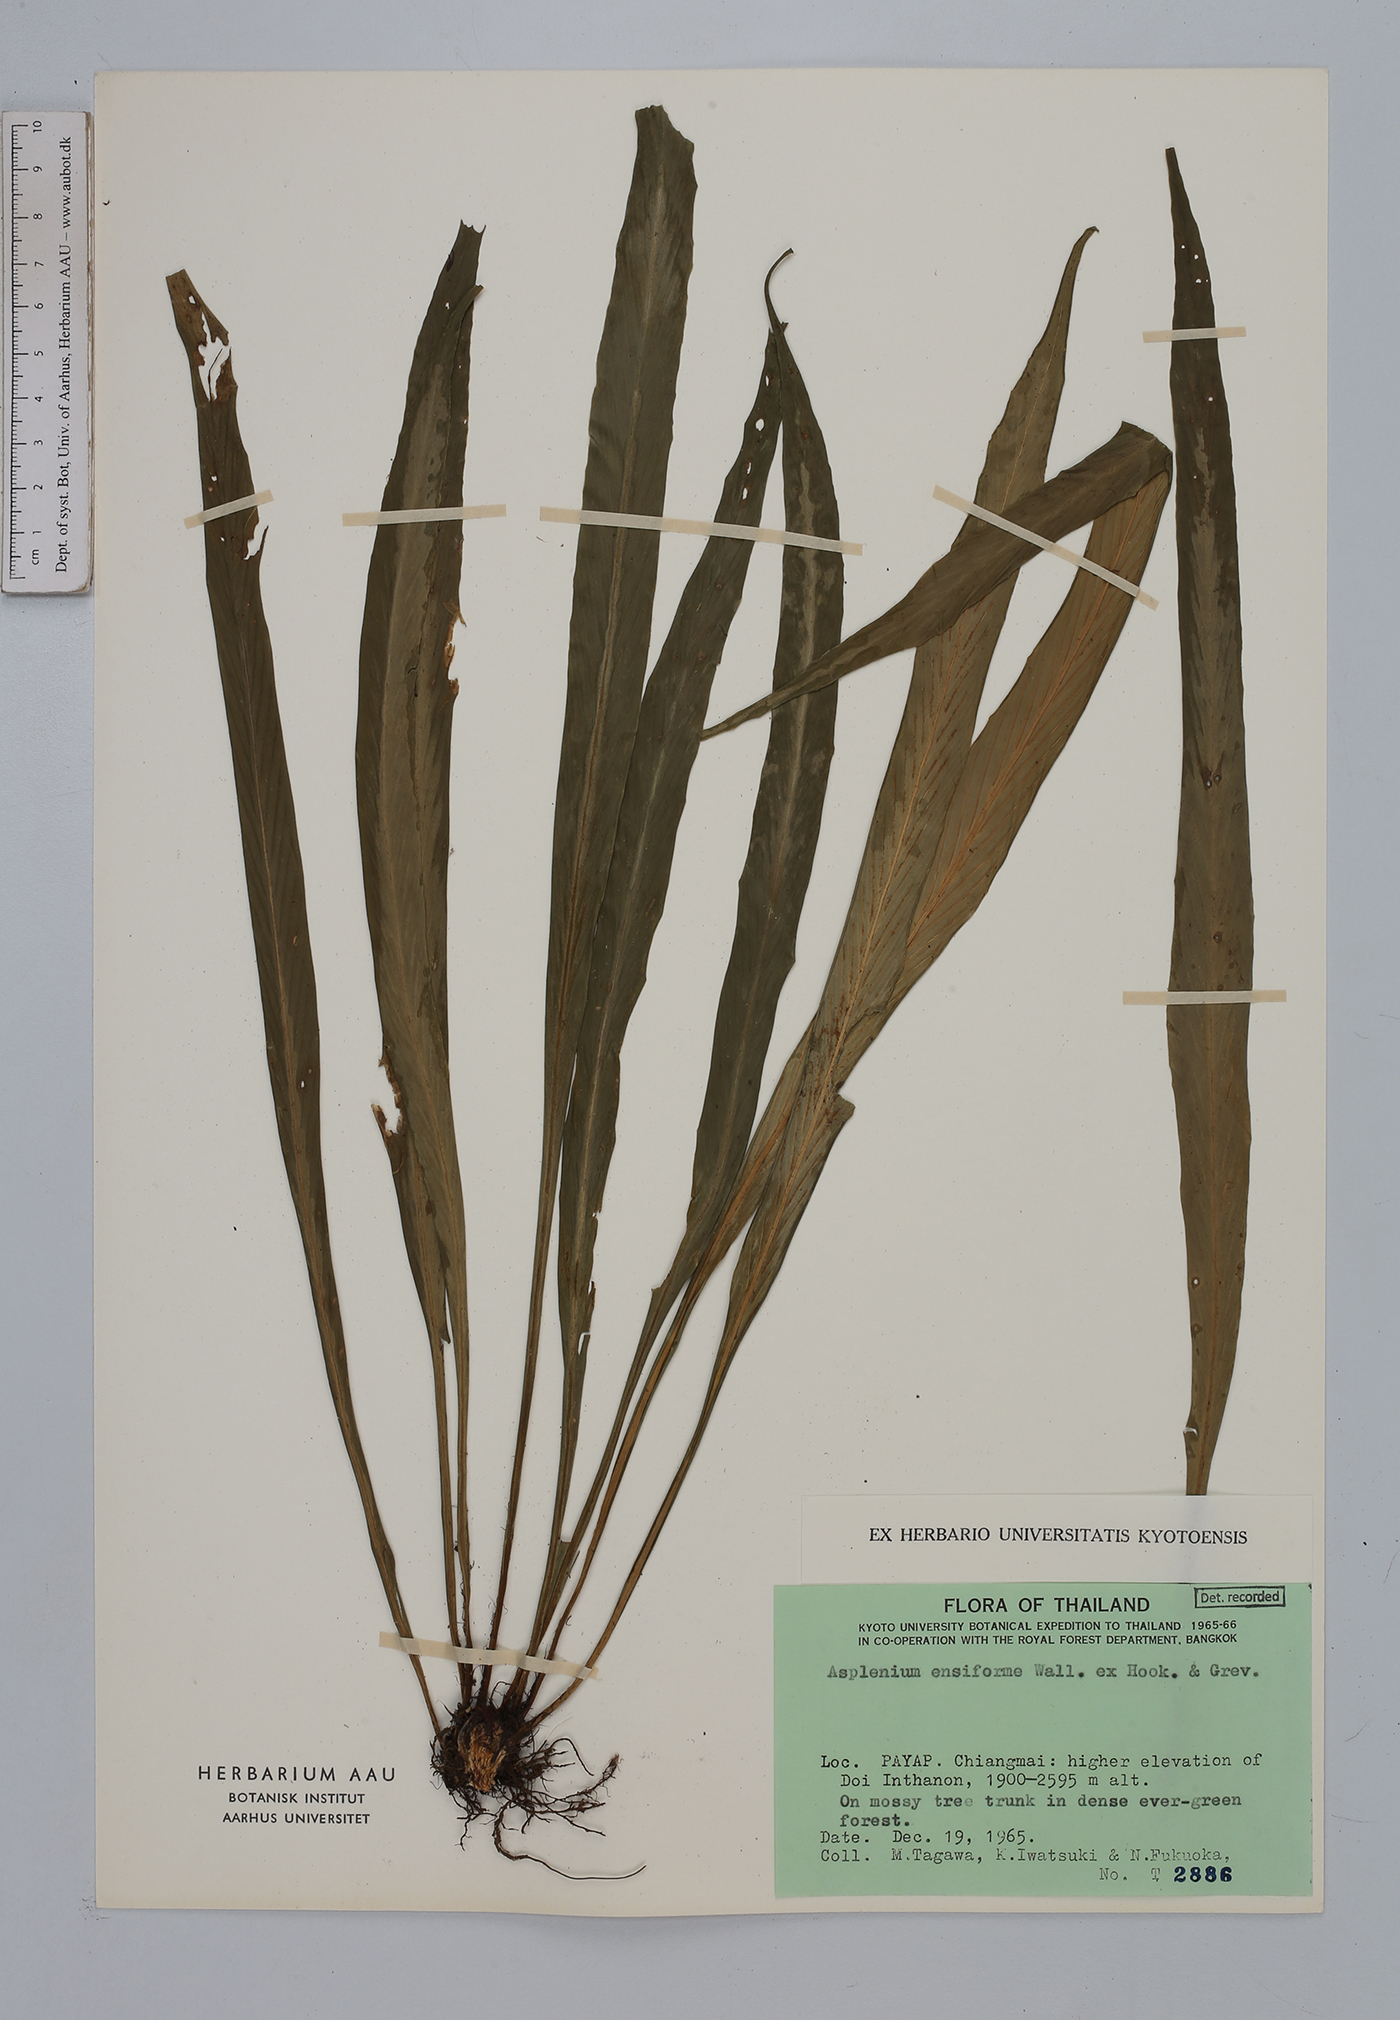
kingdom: Plantae
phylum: Tracheophyta
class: Polypodiopsida
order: Polypodiales
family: Aspleniaceae
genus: Asplenium
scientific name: Asplenium ensiforme
